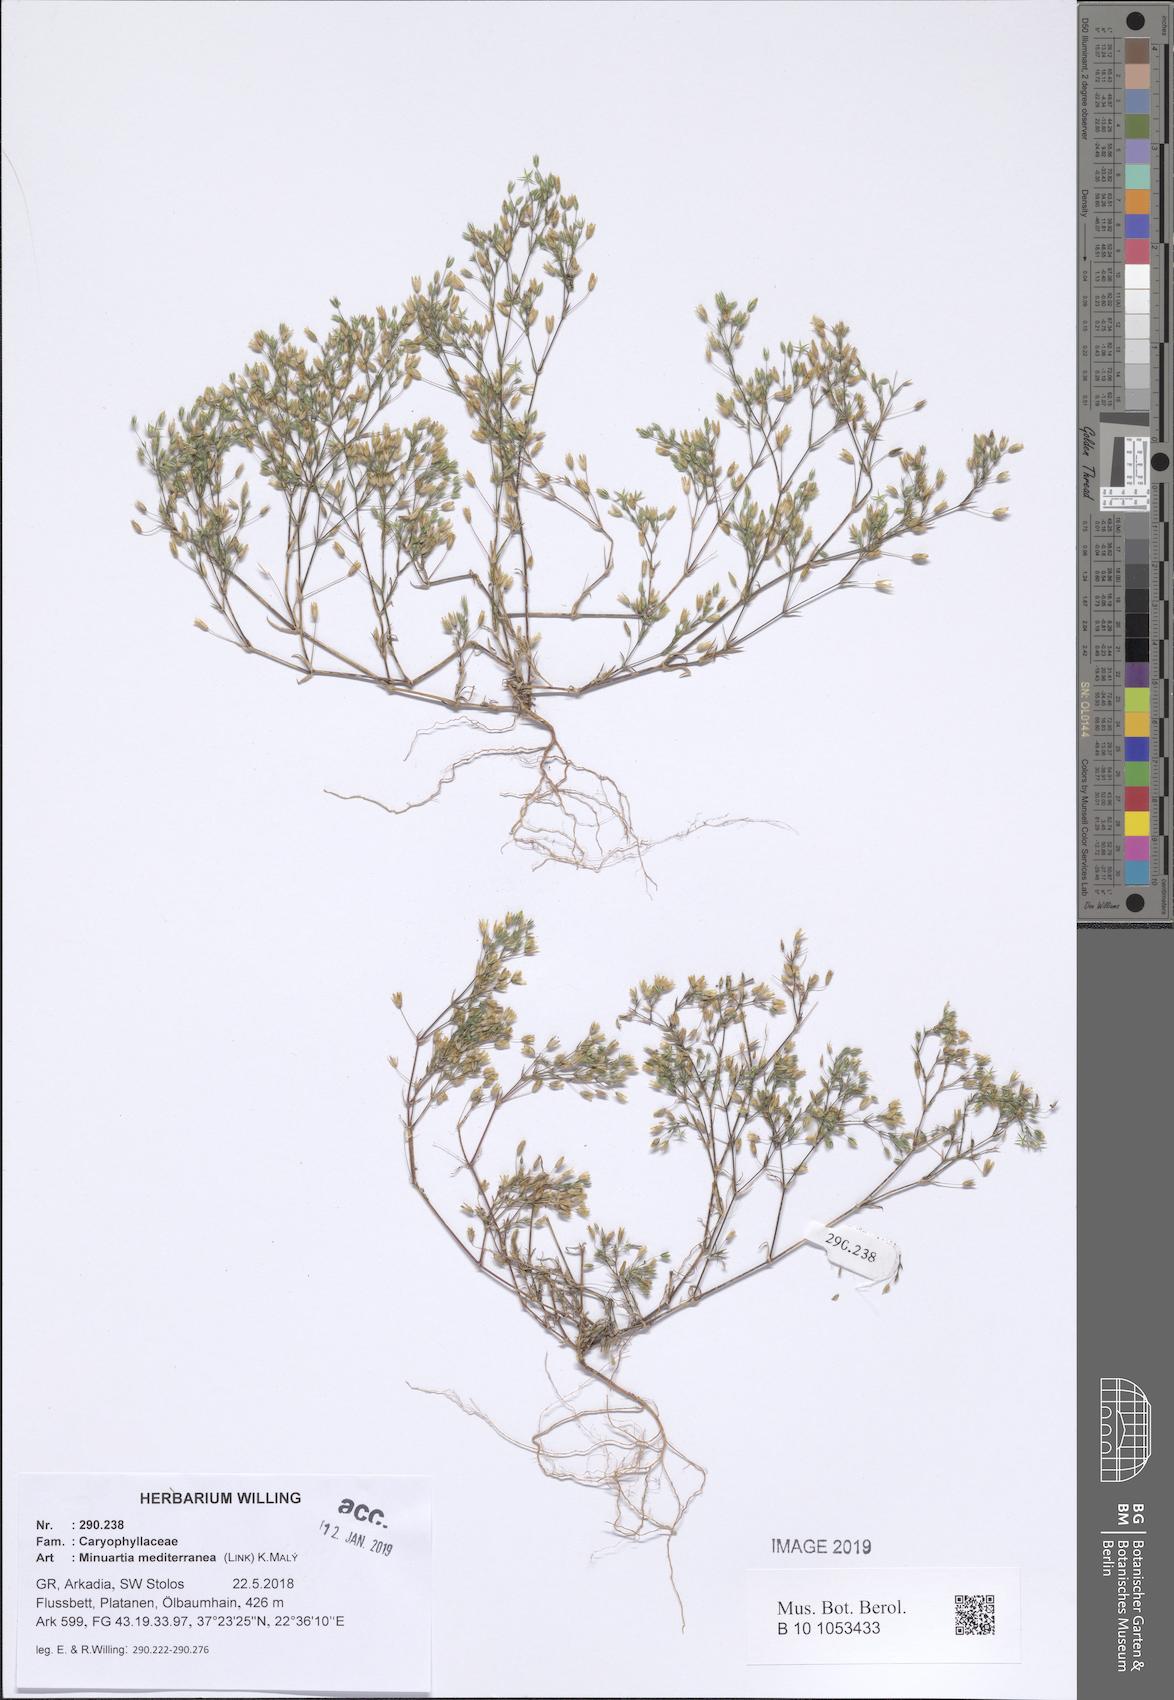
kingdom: Plantae
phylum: Tracheophyta
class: Magnoliopsida
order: Caryophyllales
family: Caryophyllaceae
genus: Sabulina
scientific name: Sabulina mediterranea
